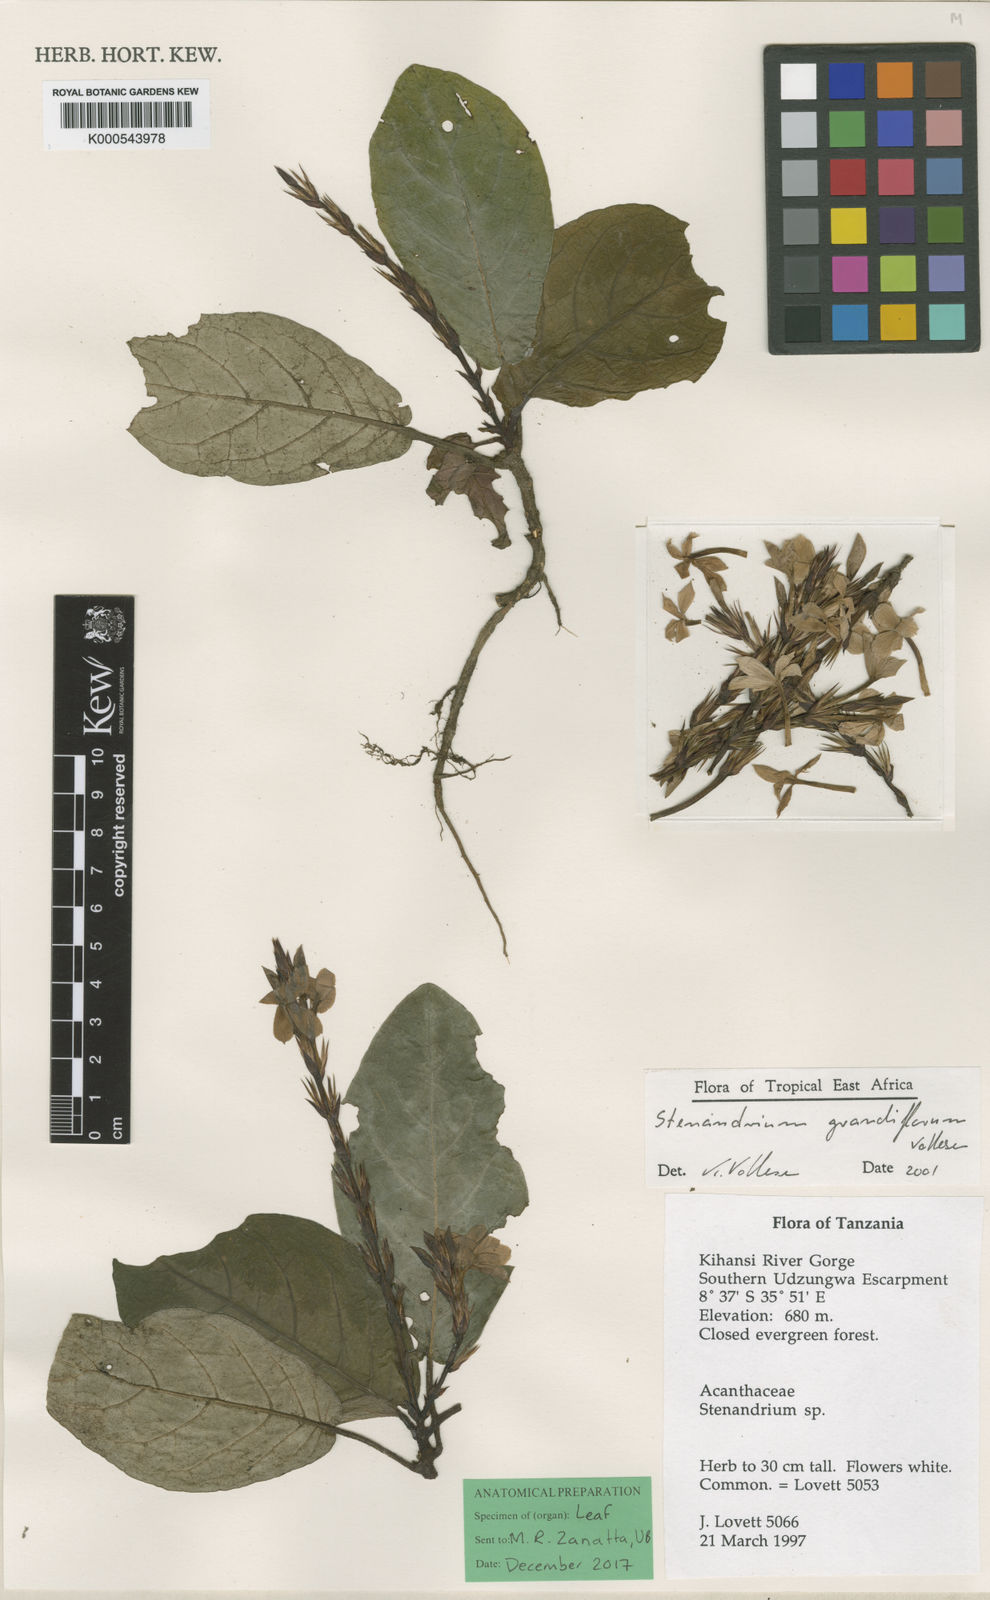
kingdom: Plantae
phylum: Tracheophyta
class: Magnoliopsida
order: Lamiales
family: Acanthaceae
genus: Stenandriopsis
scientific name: Stenandriopsis grandiflora
